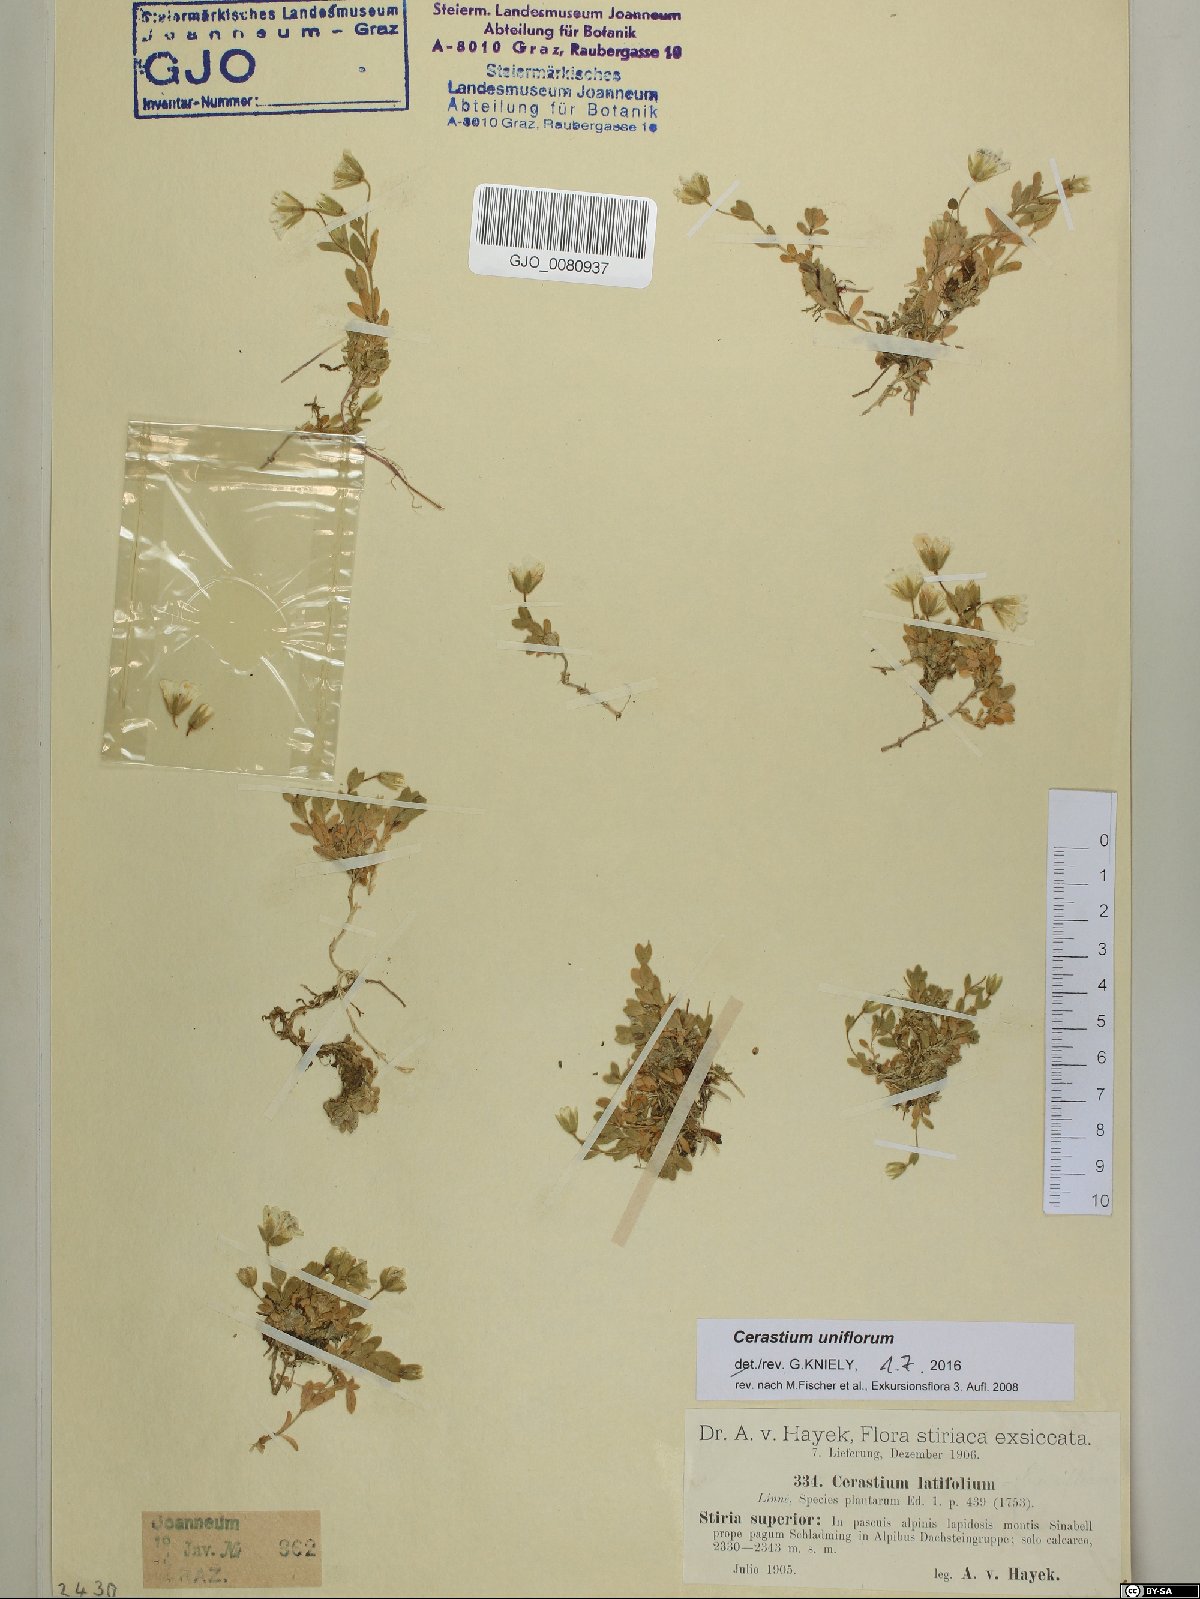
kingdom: Plantae
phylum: Tracheophyta
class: Magnoliopsida
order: Caryophyllales
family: Caryophyllaceae
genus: Cerastium
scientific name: Cerastium uniflorum
